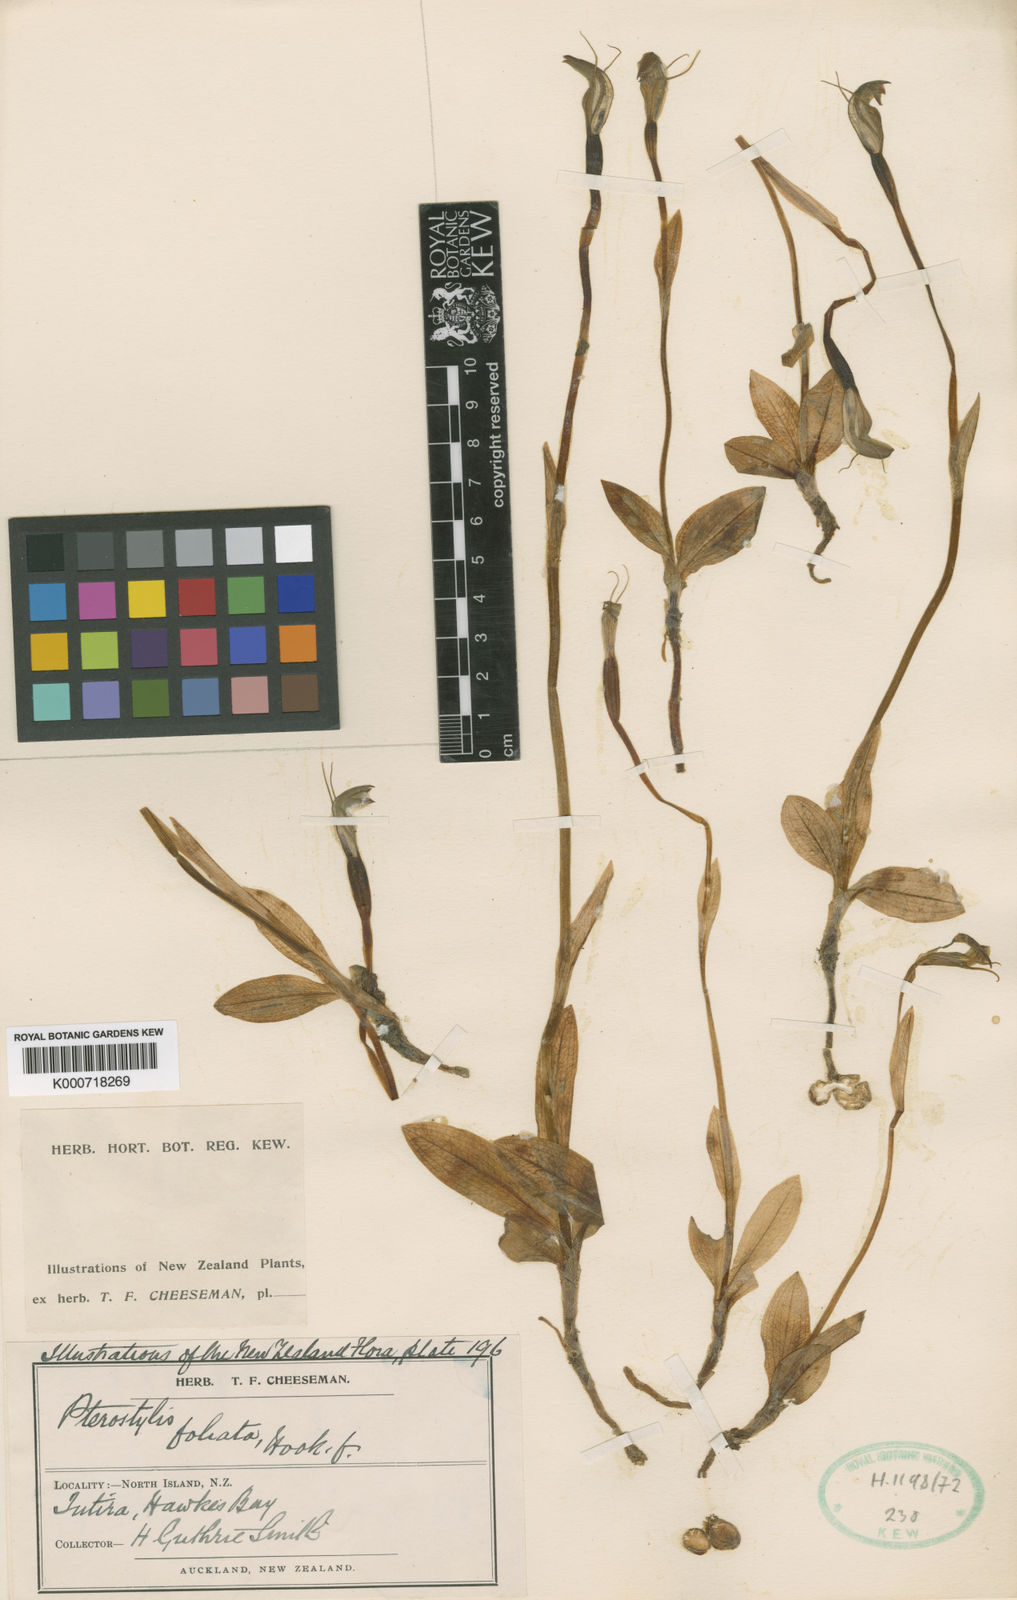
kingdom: Plantae
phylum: Tracheophyta
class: Liliopsida
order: Asparagales
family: Orchidaceae
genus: Pterostylis
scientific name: Pterostylis foliata
